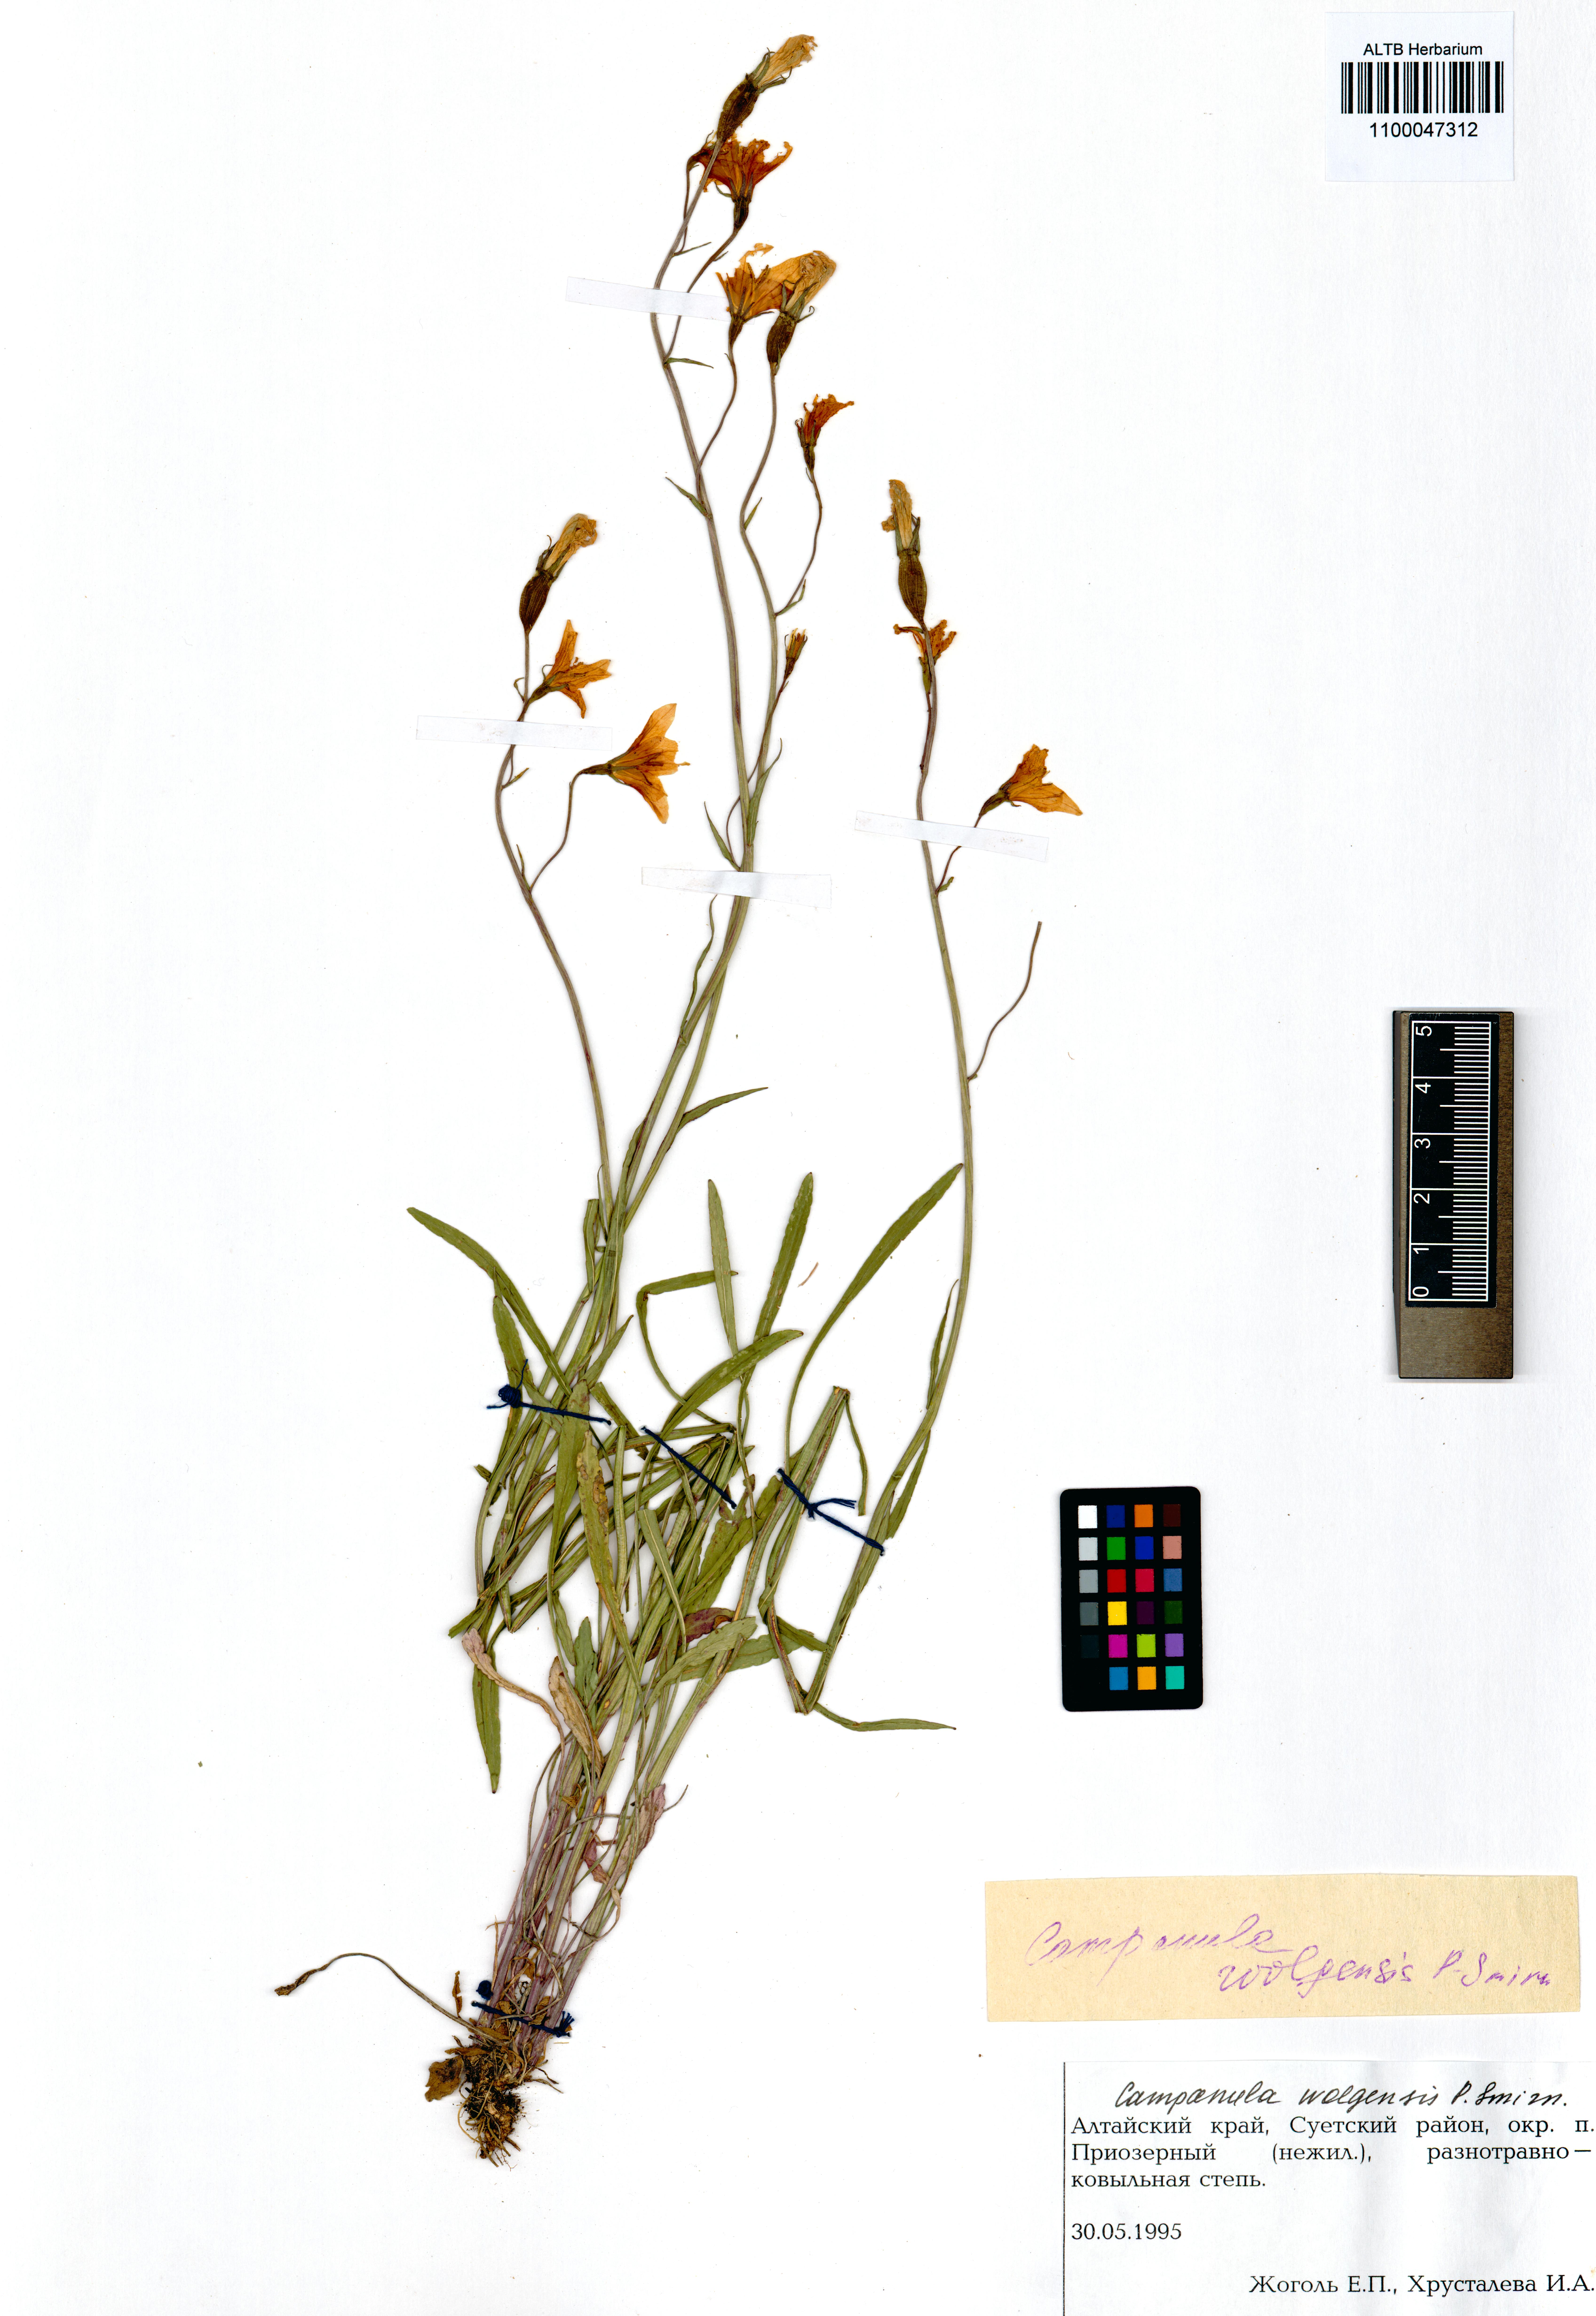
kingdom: Plantae
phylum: Tracheophyta
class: Magnoliopsida
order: Asterales
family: Campanulaceae
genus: Campanula
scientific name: Campanula stevenii
